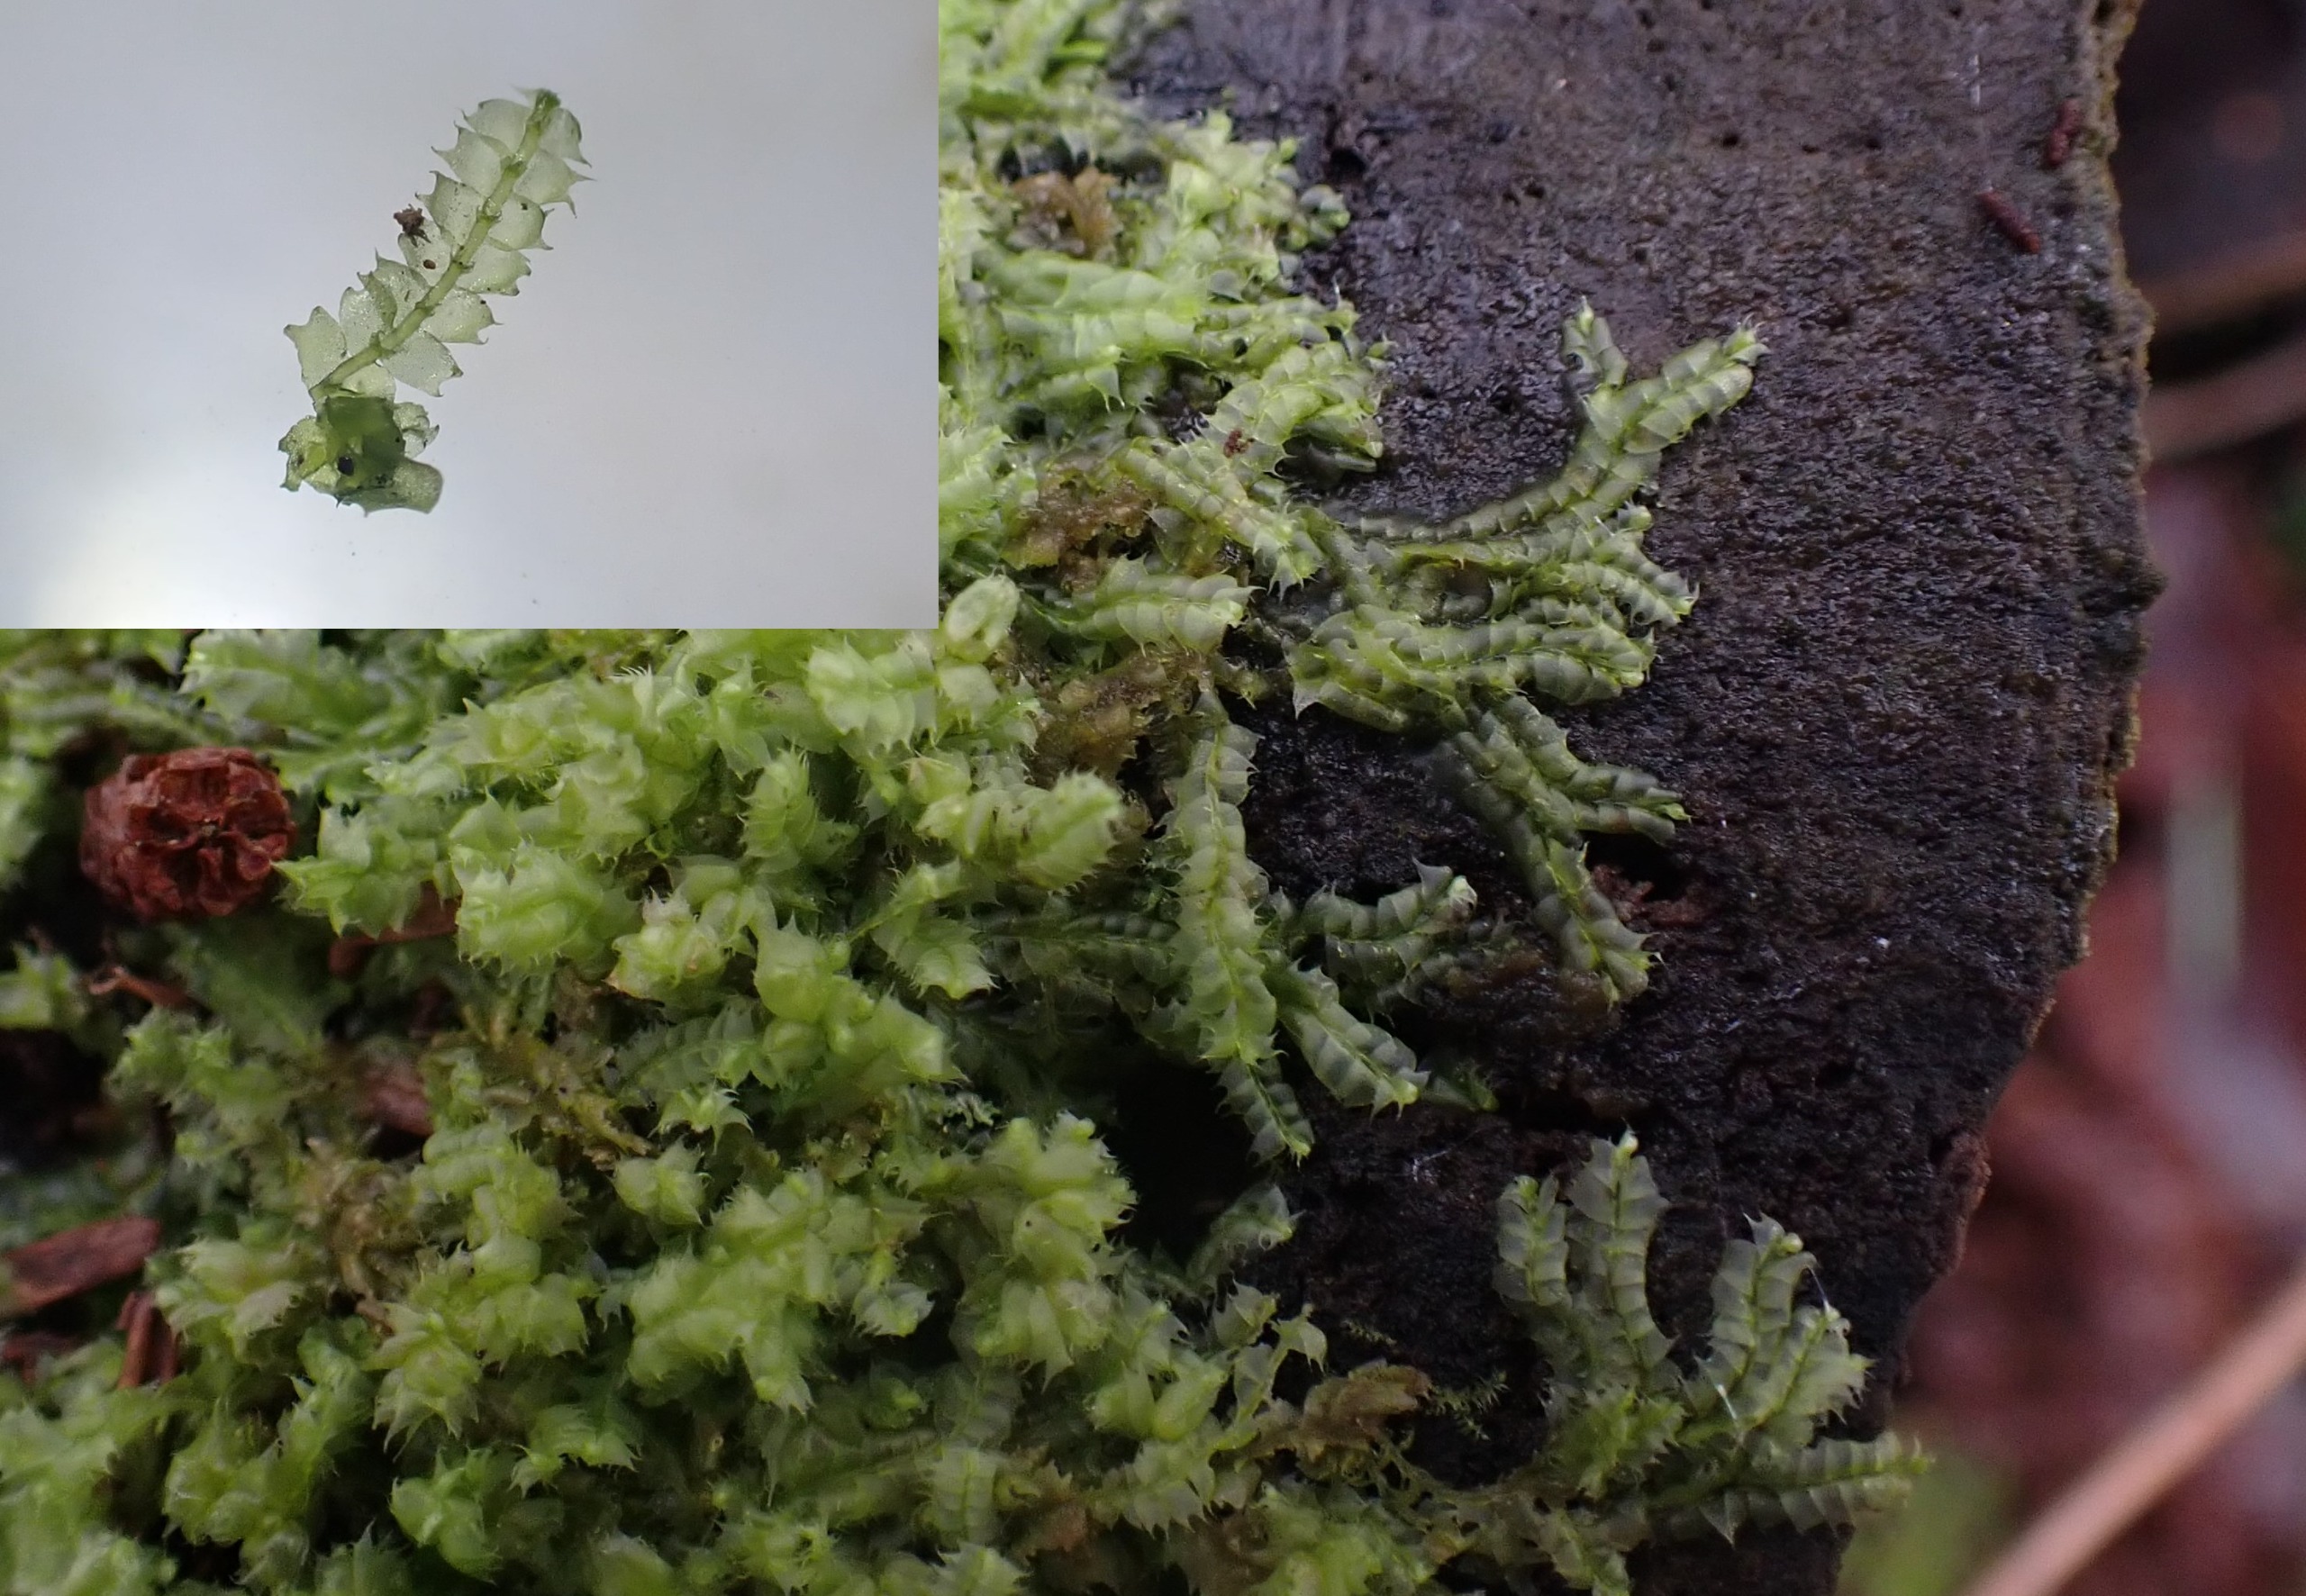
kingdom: Plantae
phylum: Marchantiophyta
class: Jungermanniopsida
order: Jungermanniales
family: Lophocoleaceae
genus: Lophocolea
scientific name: Lophocolea bidentata
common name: Sylspidset kamsvøb
